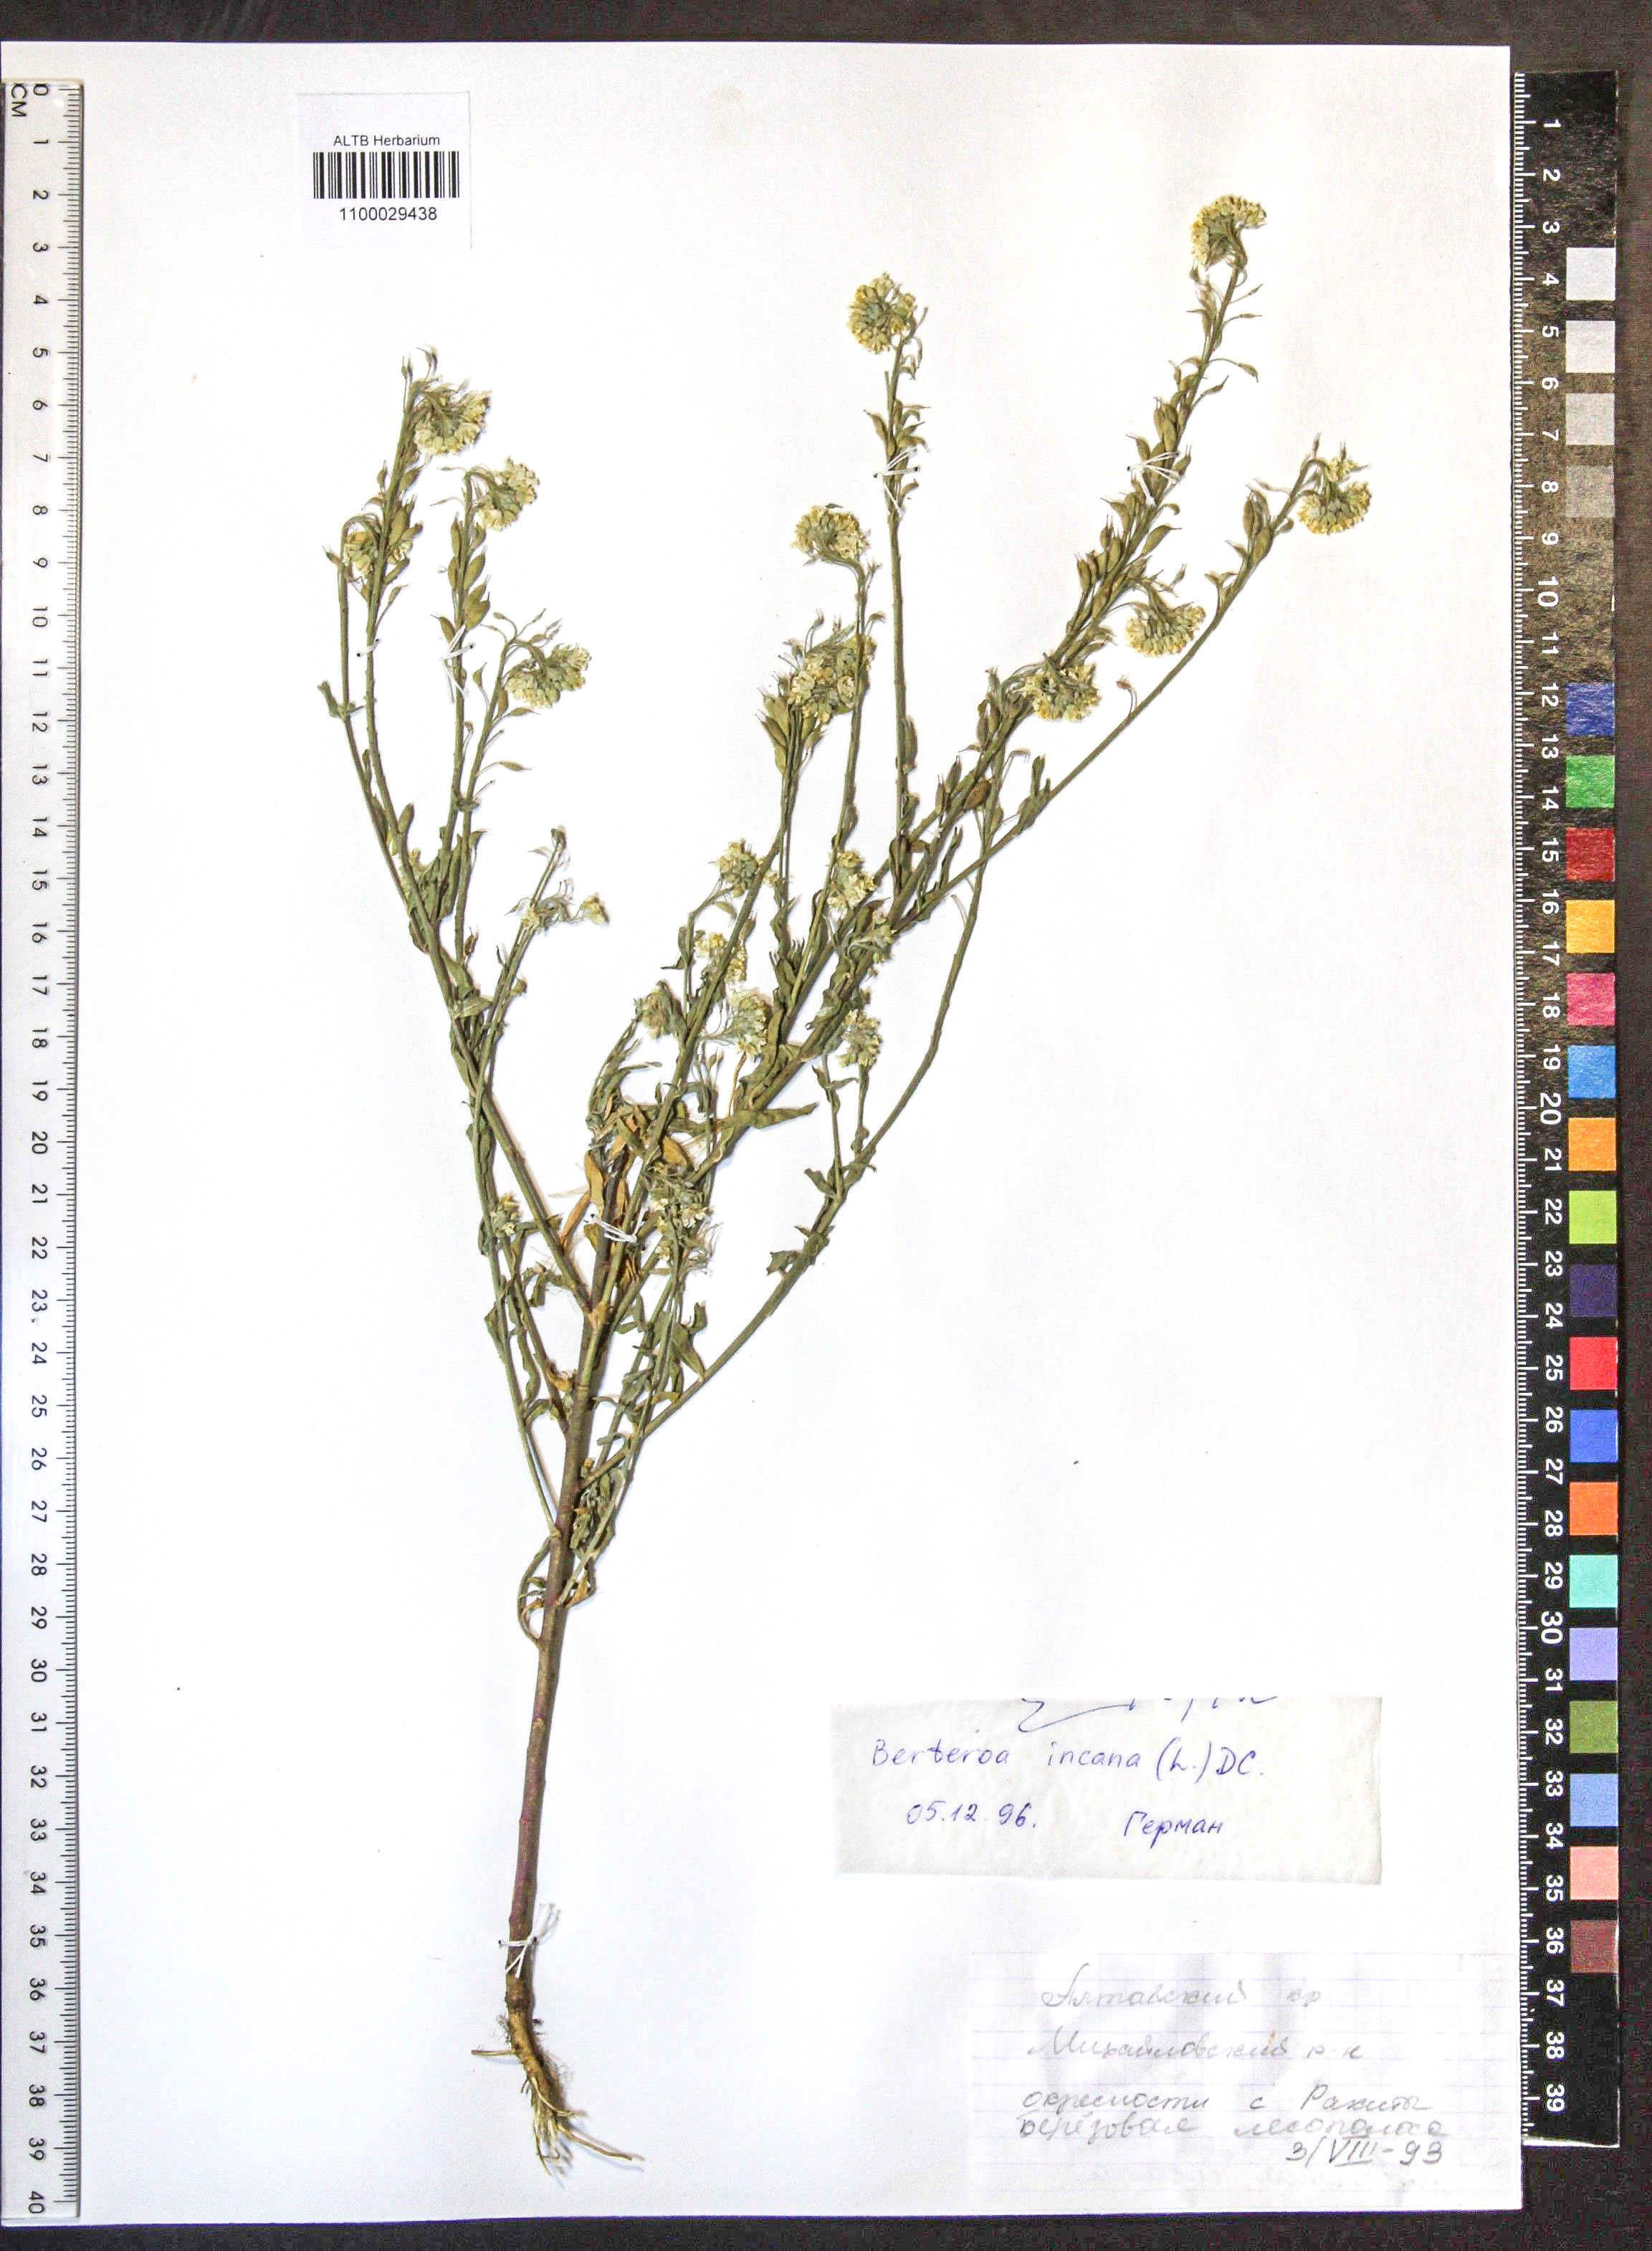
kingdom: Plantae
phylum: Tracheophyta
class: Magnoliopsida
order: Brassicales
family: Brassicaceae
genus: Berteroa
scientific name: Berteroa incana
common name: Hoary alison
